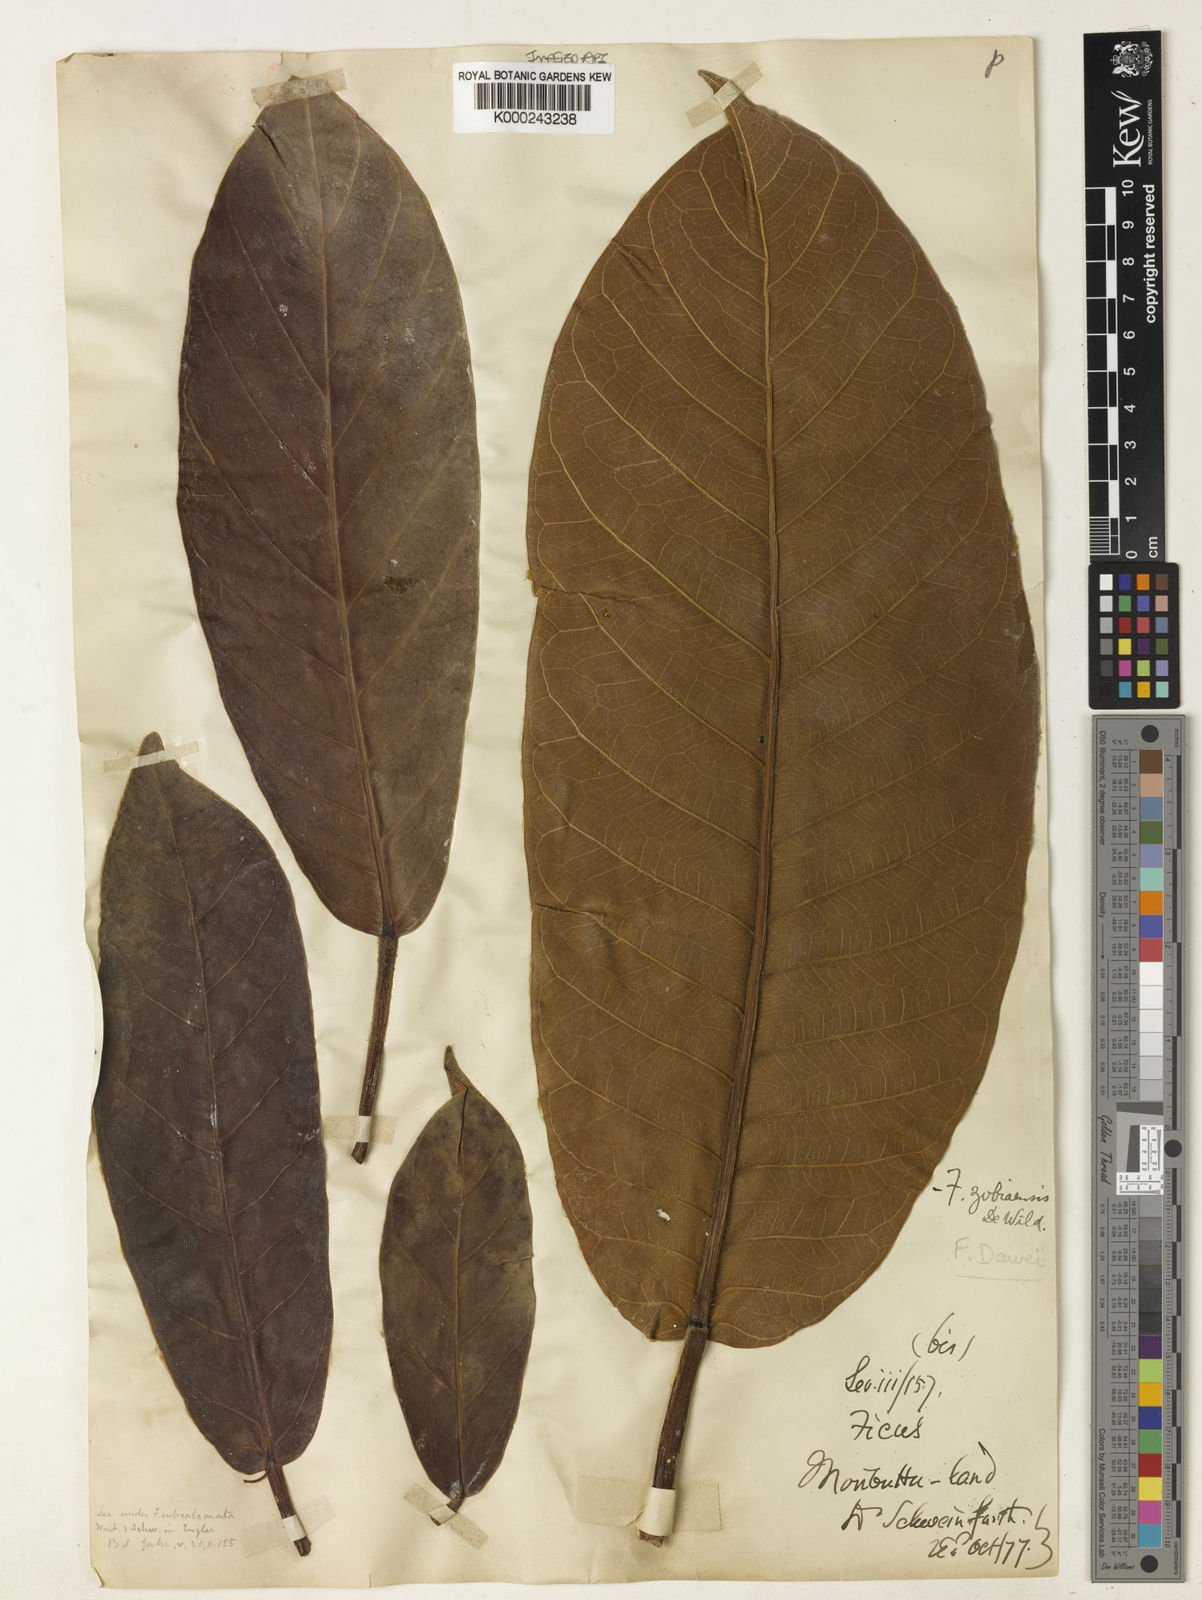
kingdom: Plantae
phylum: Tracheophyta
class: Magnoliopsida
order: Rosales
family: Moraceae
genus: Ficus
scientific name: Ficus saussureana
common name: Loquat-leaf fig
